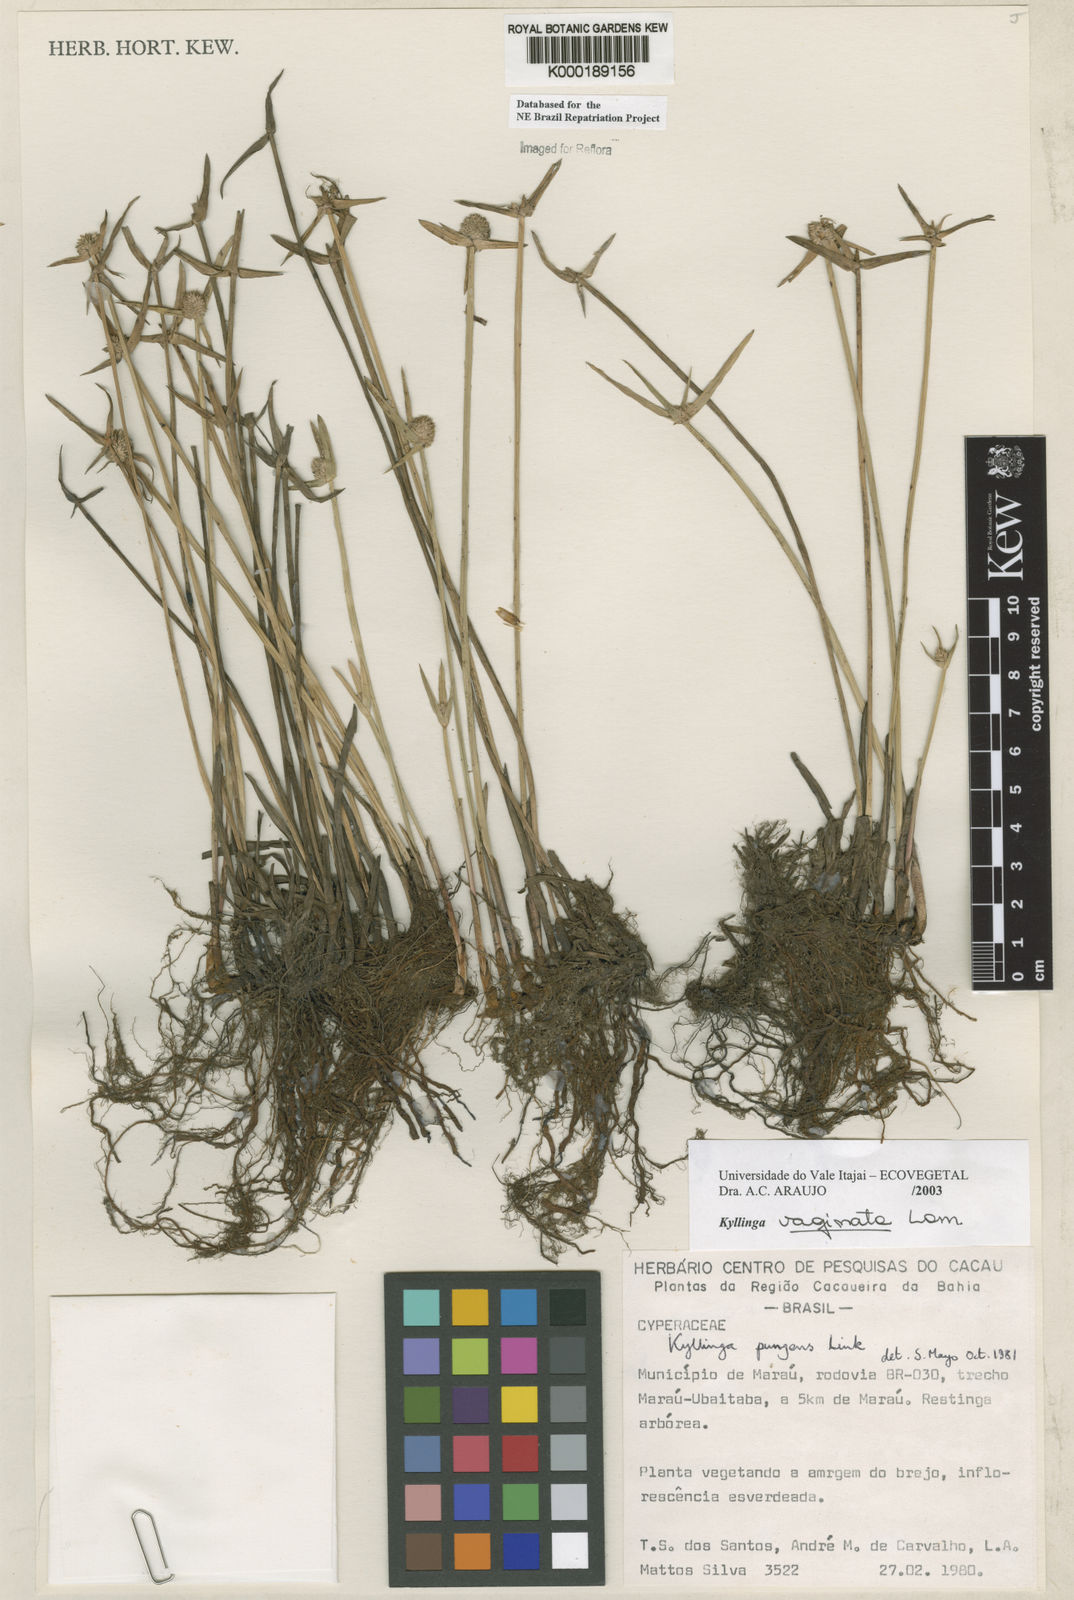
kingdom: Plantae
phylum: Tracheophyta
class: Liliopsida
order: Poales
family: Cyperaceae
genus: Cyperus
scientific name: Cyperus obtusatus
